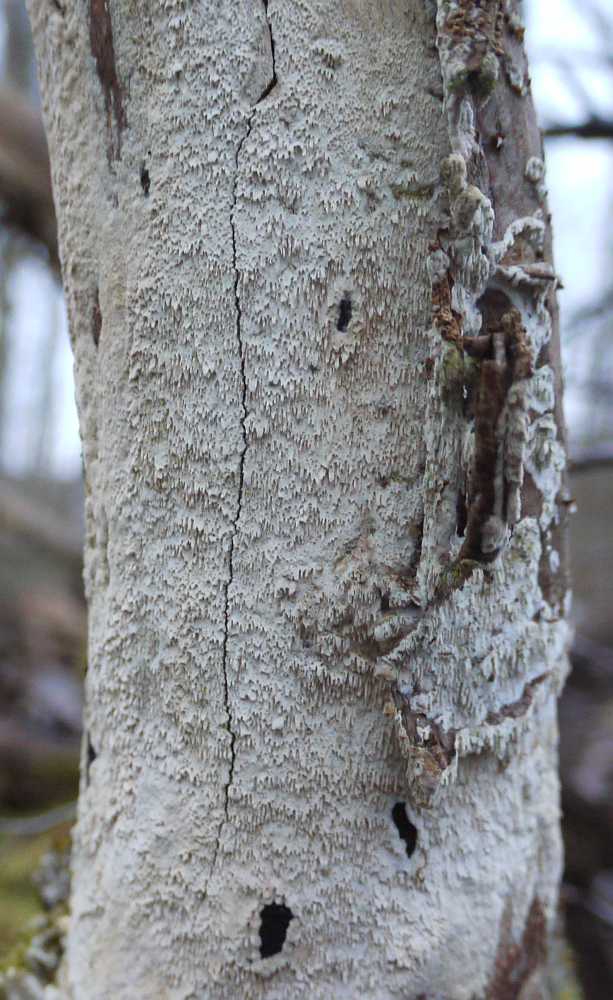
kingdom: Fungi
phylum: Basidiomycota
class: Agaricomycetes
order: Hymenochaetales
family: Schizoporaceae
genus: Schizopora
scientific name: Schizopora paradoxa
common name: hvid tandsvamp
